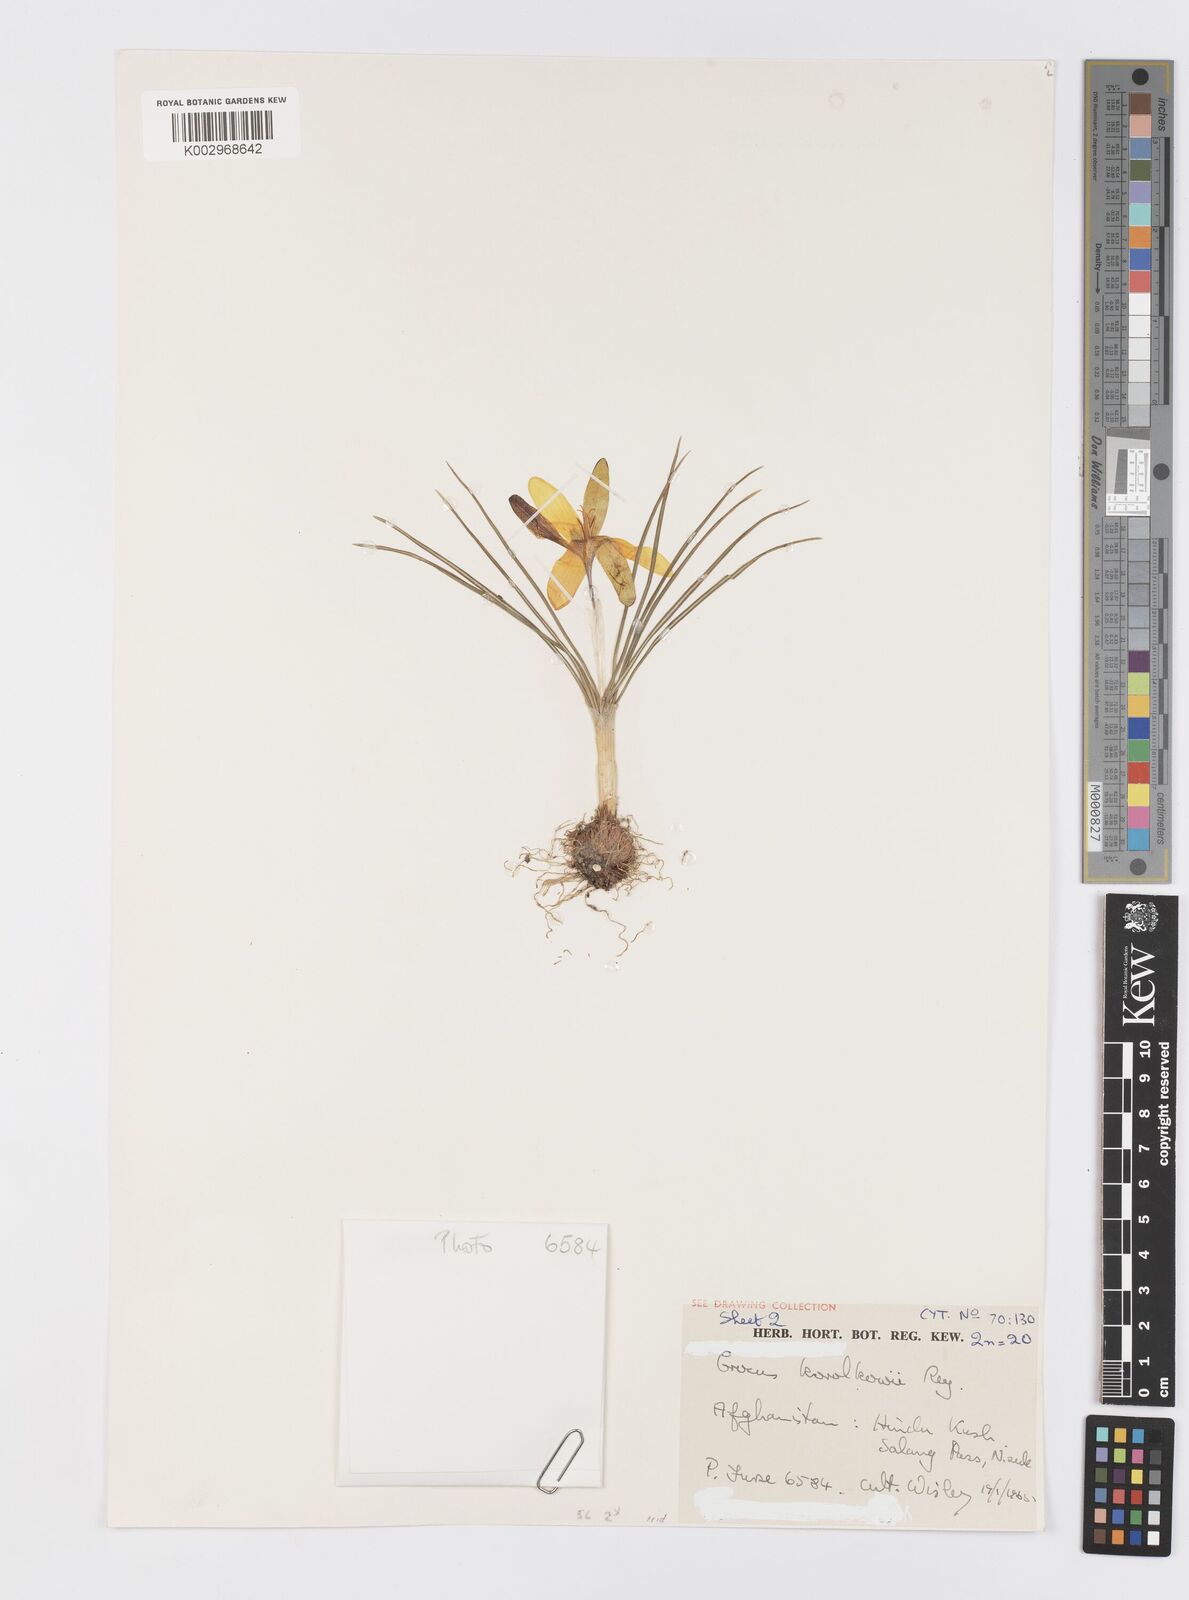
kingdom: Plantae
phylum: Tracheophyta
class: Liliopsida
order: Asparagales
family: Iridaceae
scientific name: Iridaceae
